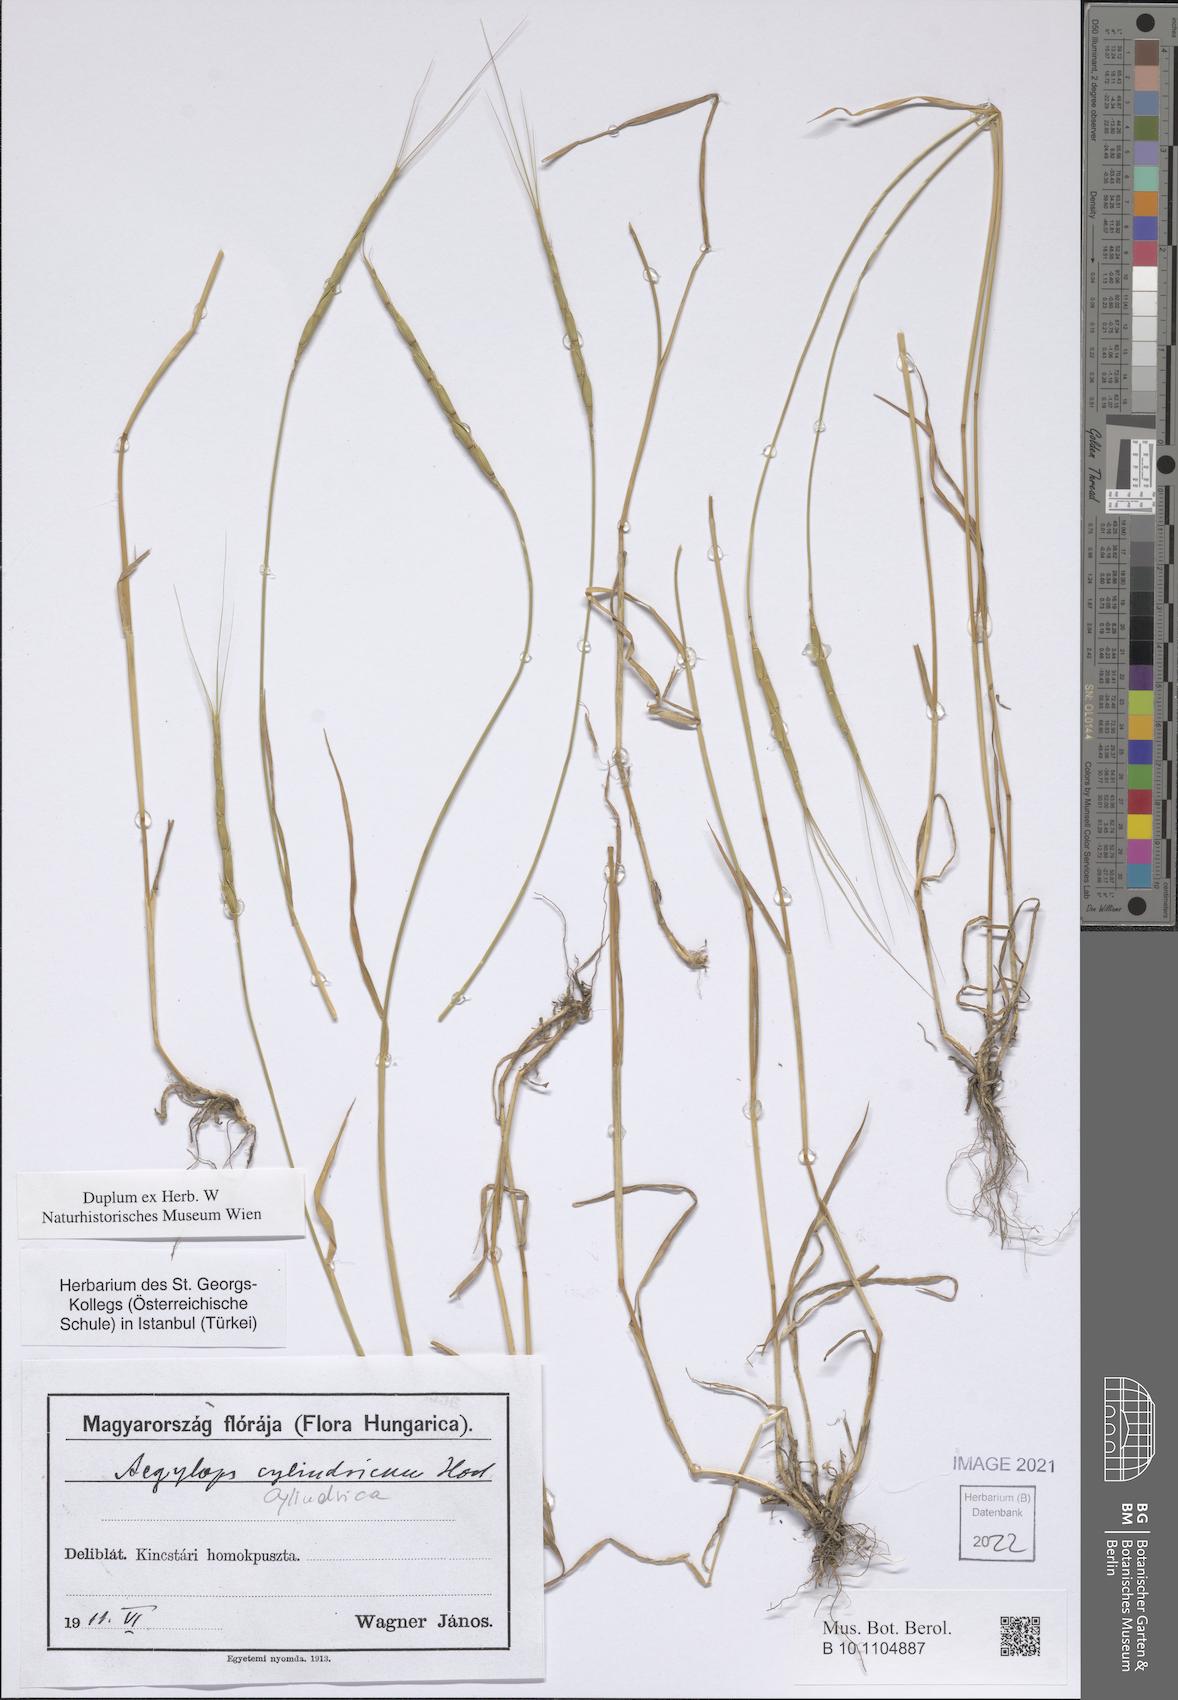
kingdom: Plantae
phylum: Tracheophyta
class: Liliopsida
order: Poales
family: Poaceae
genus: Aegilops
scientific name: Aegilops cylindrica
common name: Jointed goatgrass
